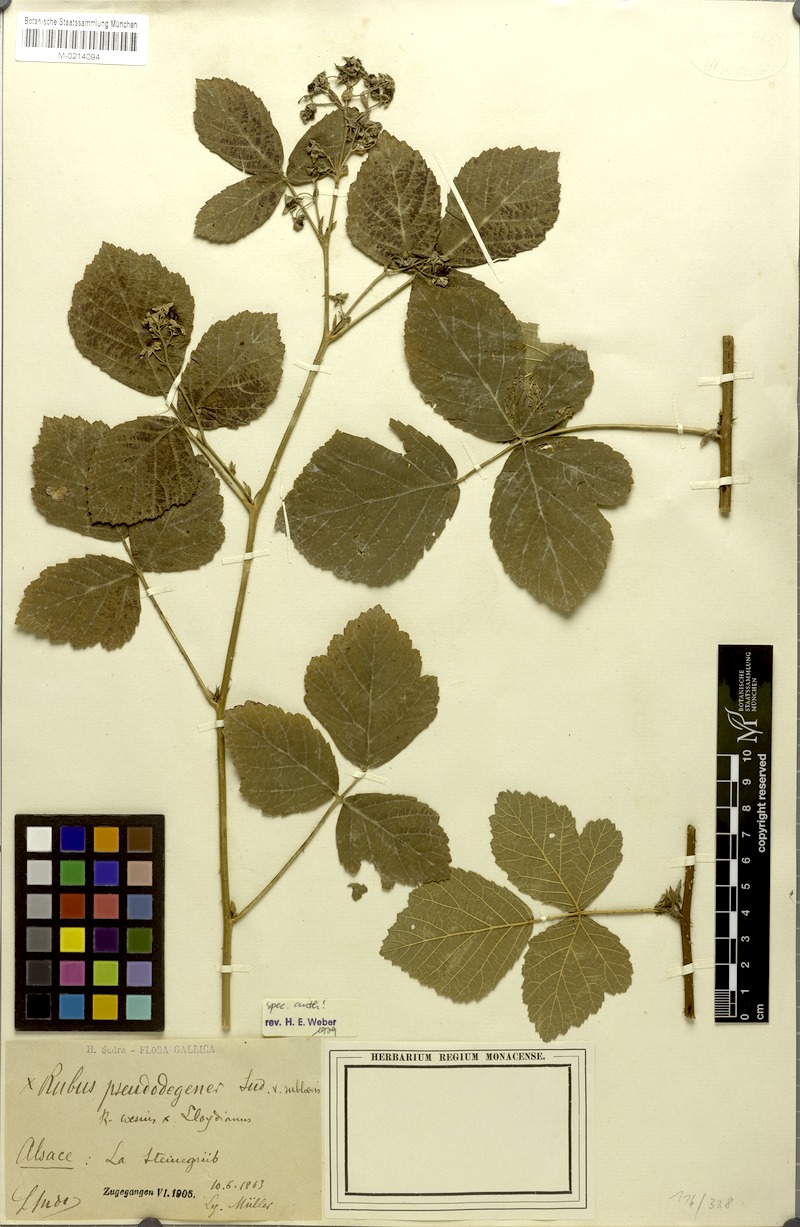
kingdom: Plantae
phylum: Tracheophyta
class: Magnoliopsida
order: Rosales
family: Rosaceae
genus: Rubus
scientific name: Rubus pseudodegener
